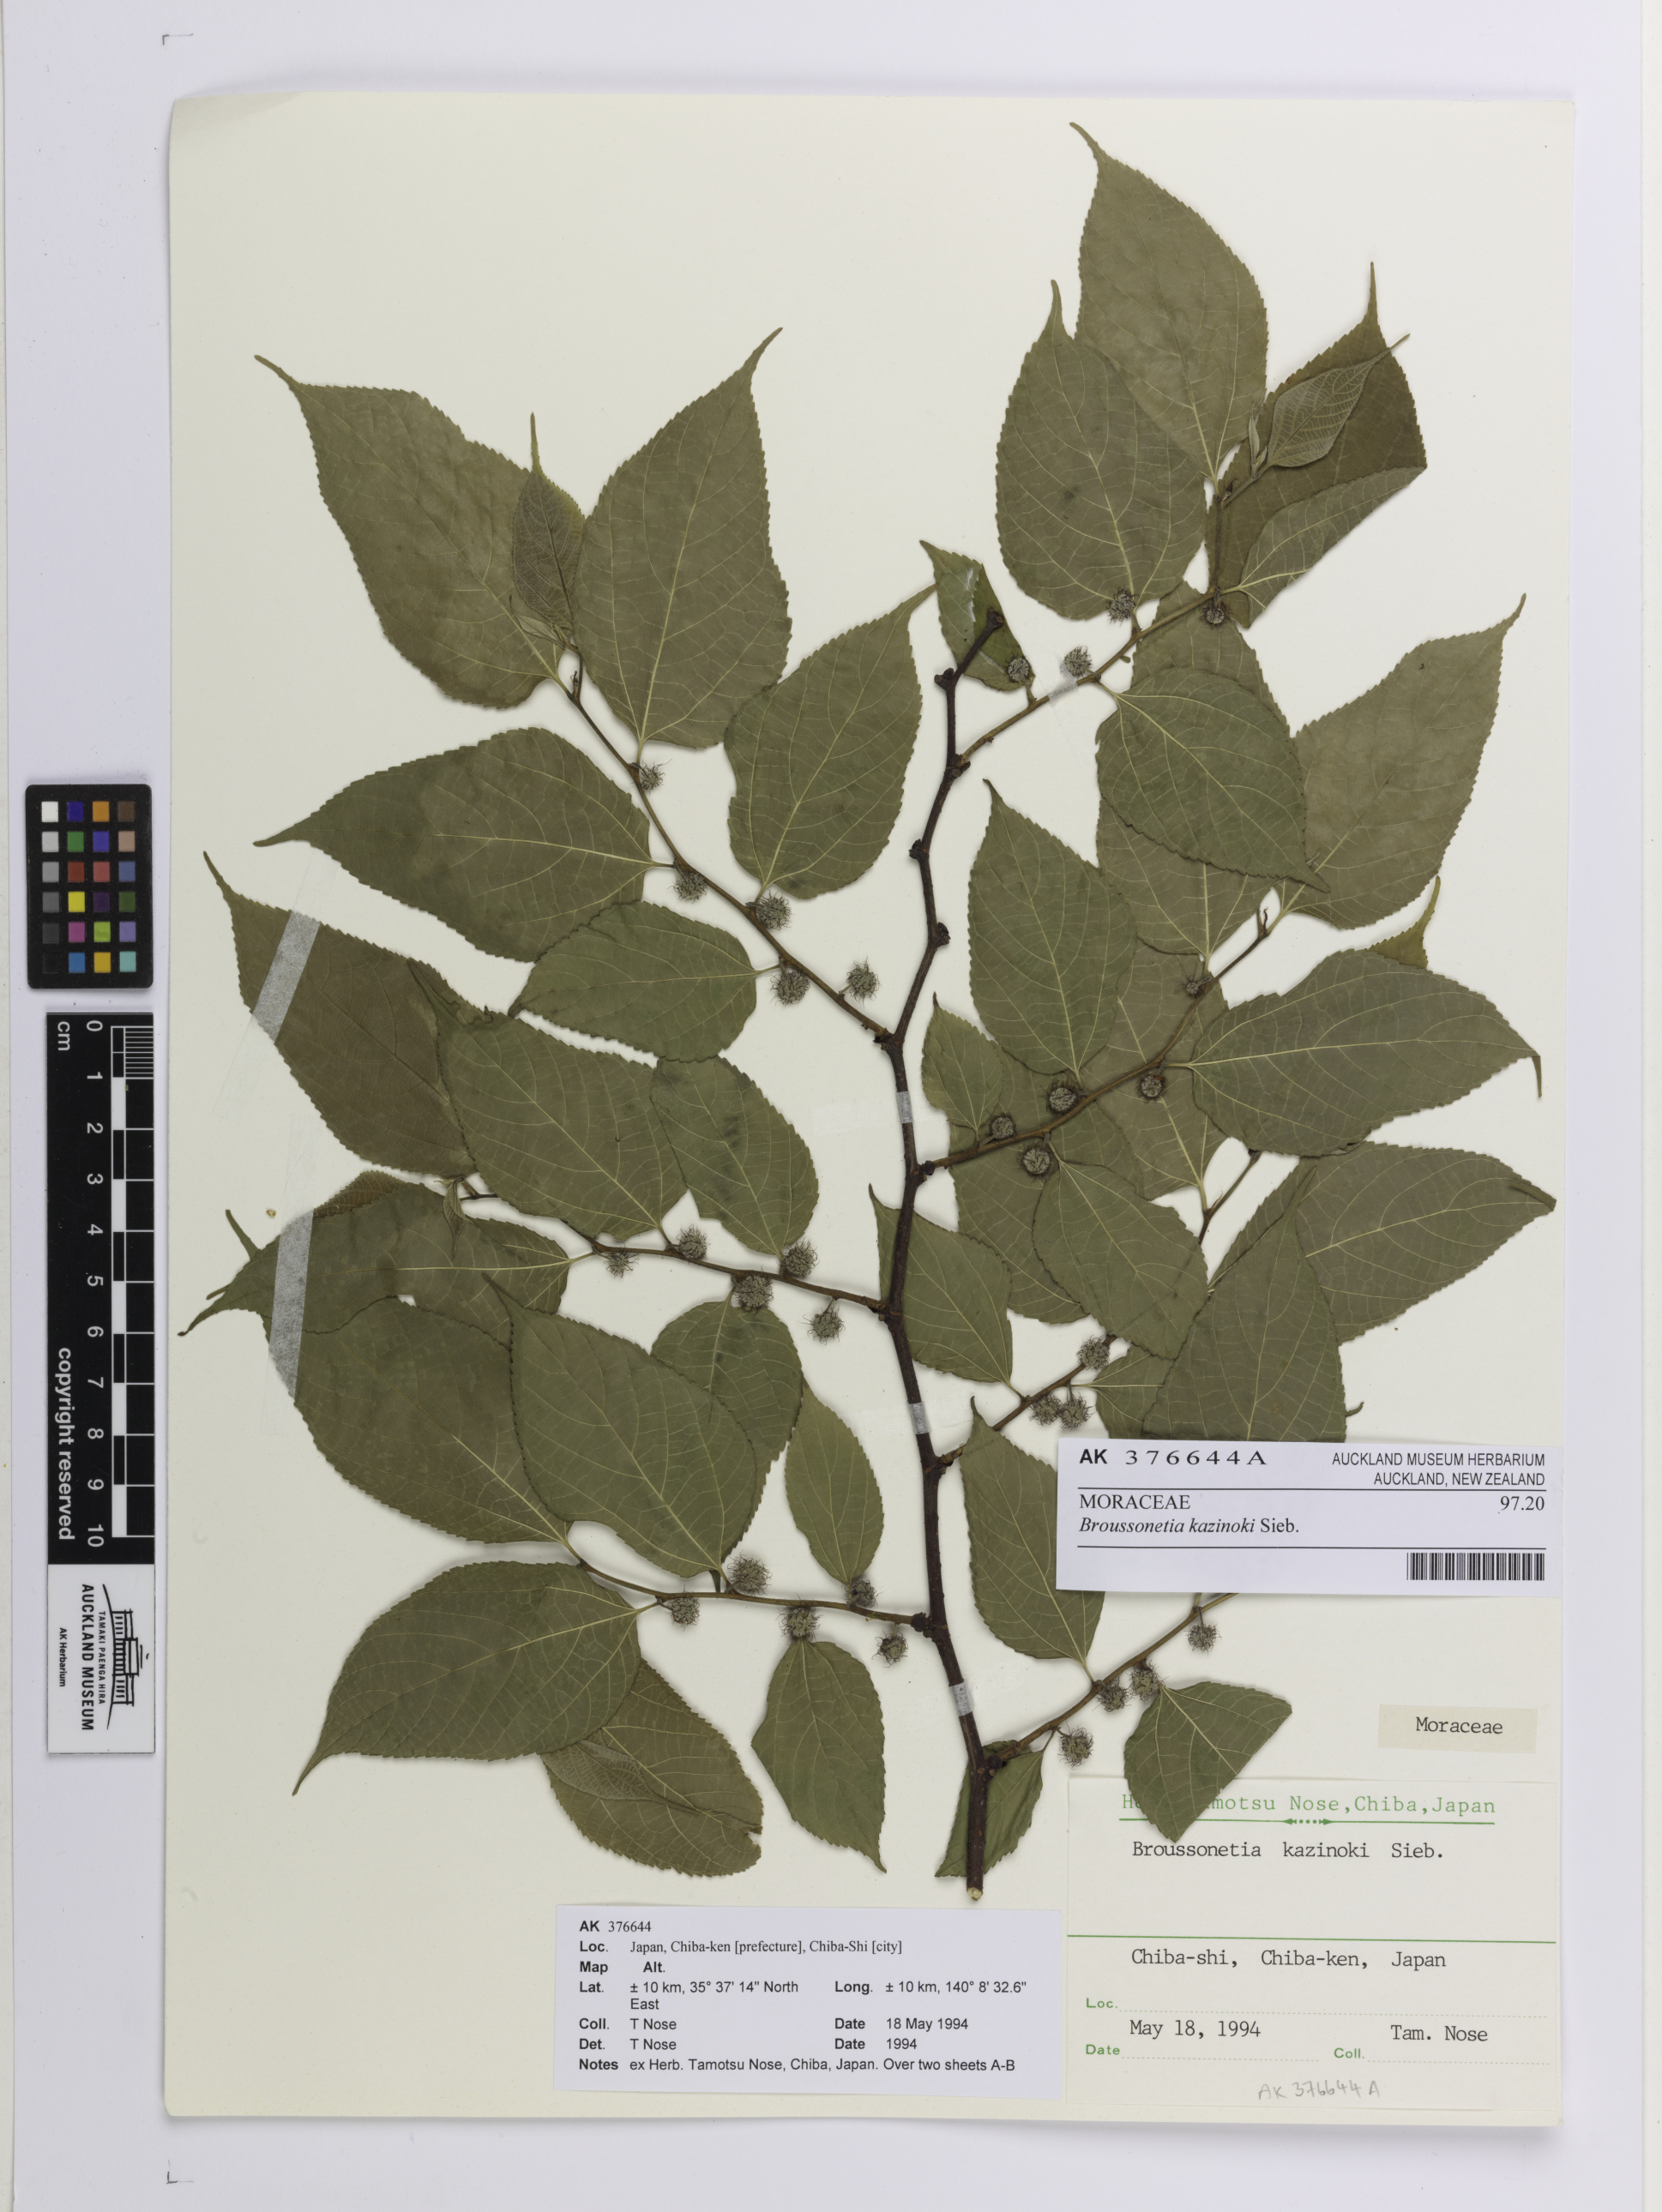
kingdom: Plantae
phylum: Tracheophyta
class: Magnoliopsida
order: Rosales
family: Moraceae
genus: Broussonetia
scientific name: Broussonetia kazinoki
